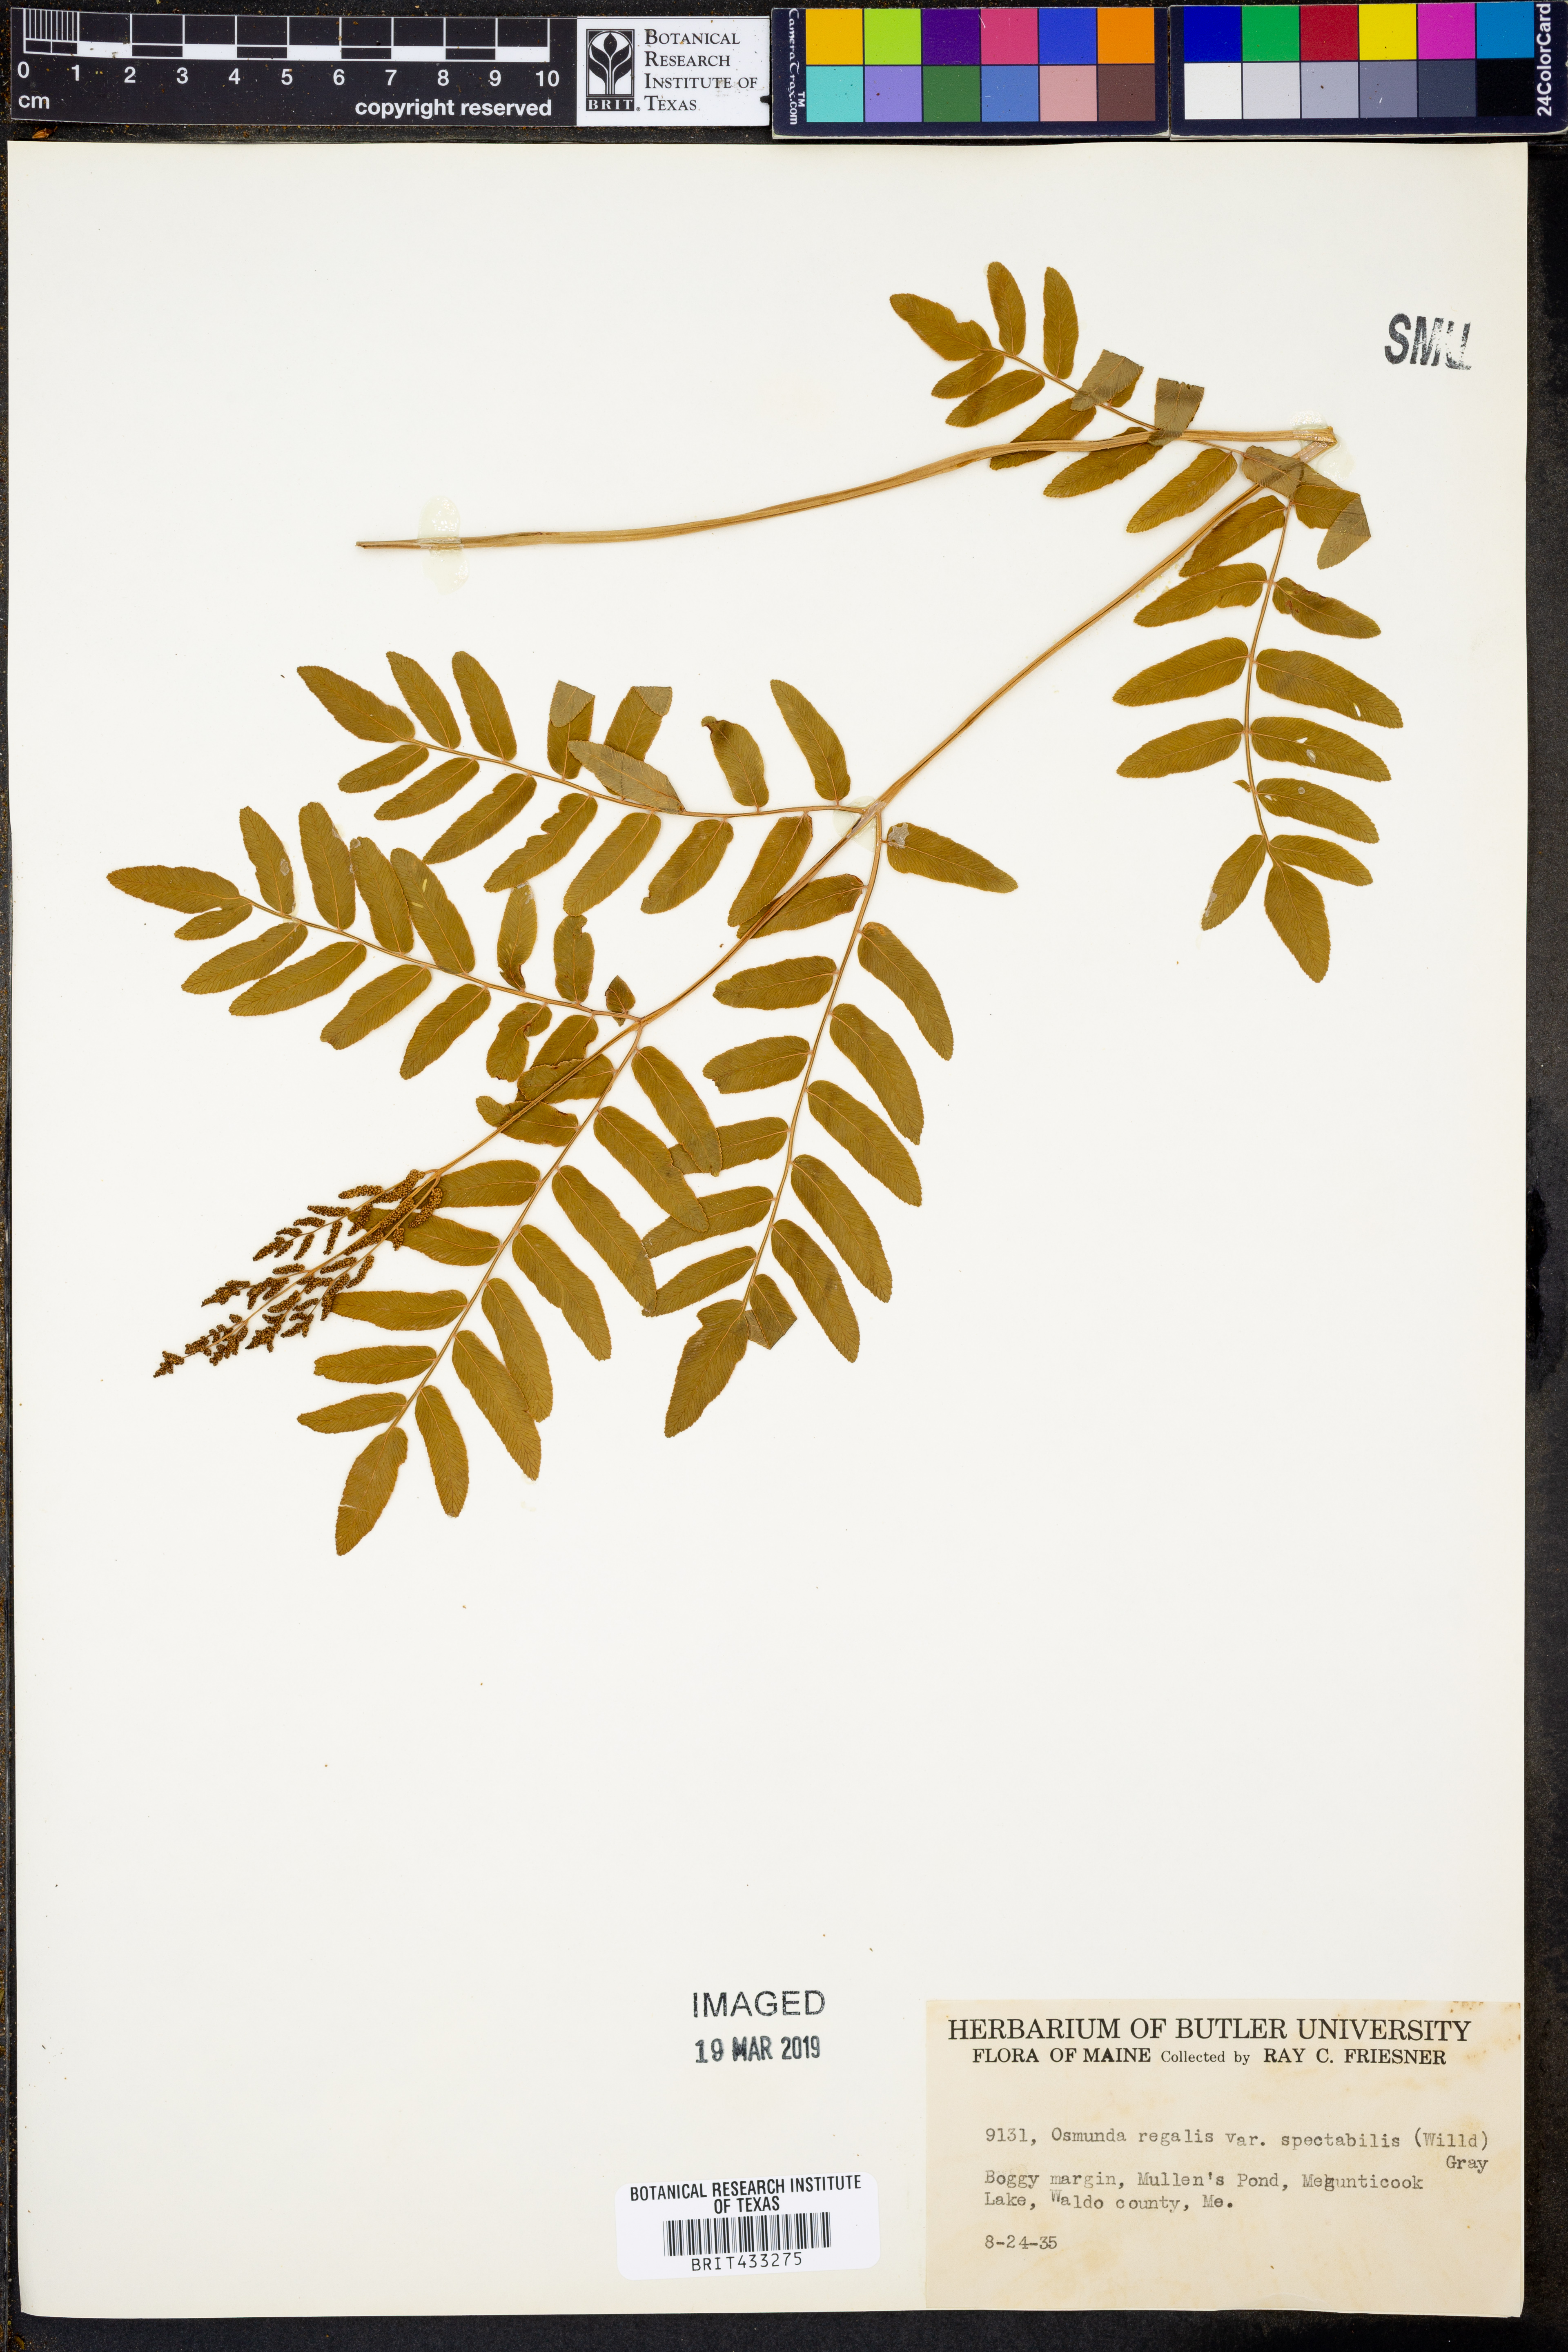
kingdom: Plantae
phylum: Tracheophyta
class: Polypodiopsida
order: Osmundales
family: Osmundaceae
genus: Osmunda
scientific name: Osmunda spectabilis
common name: American royal fern
